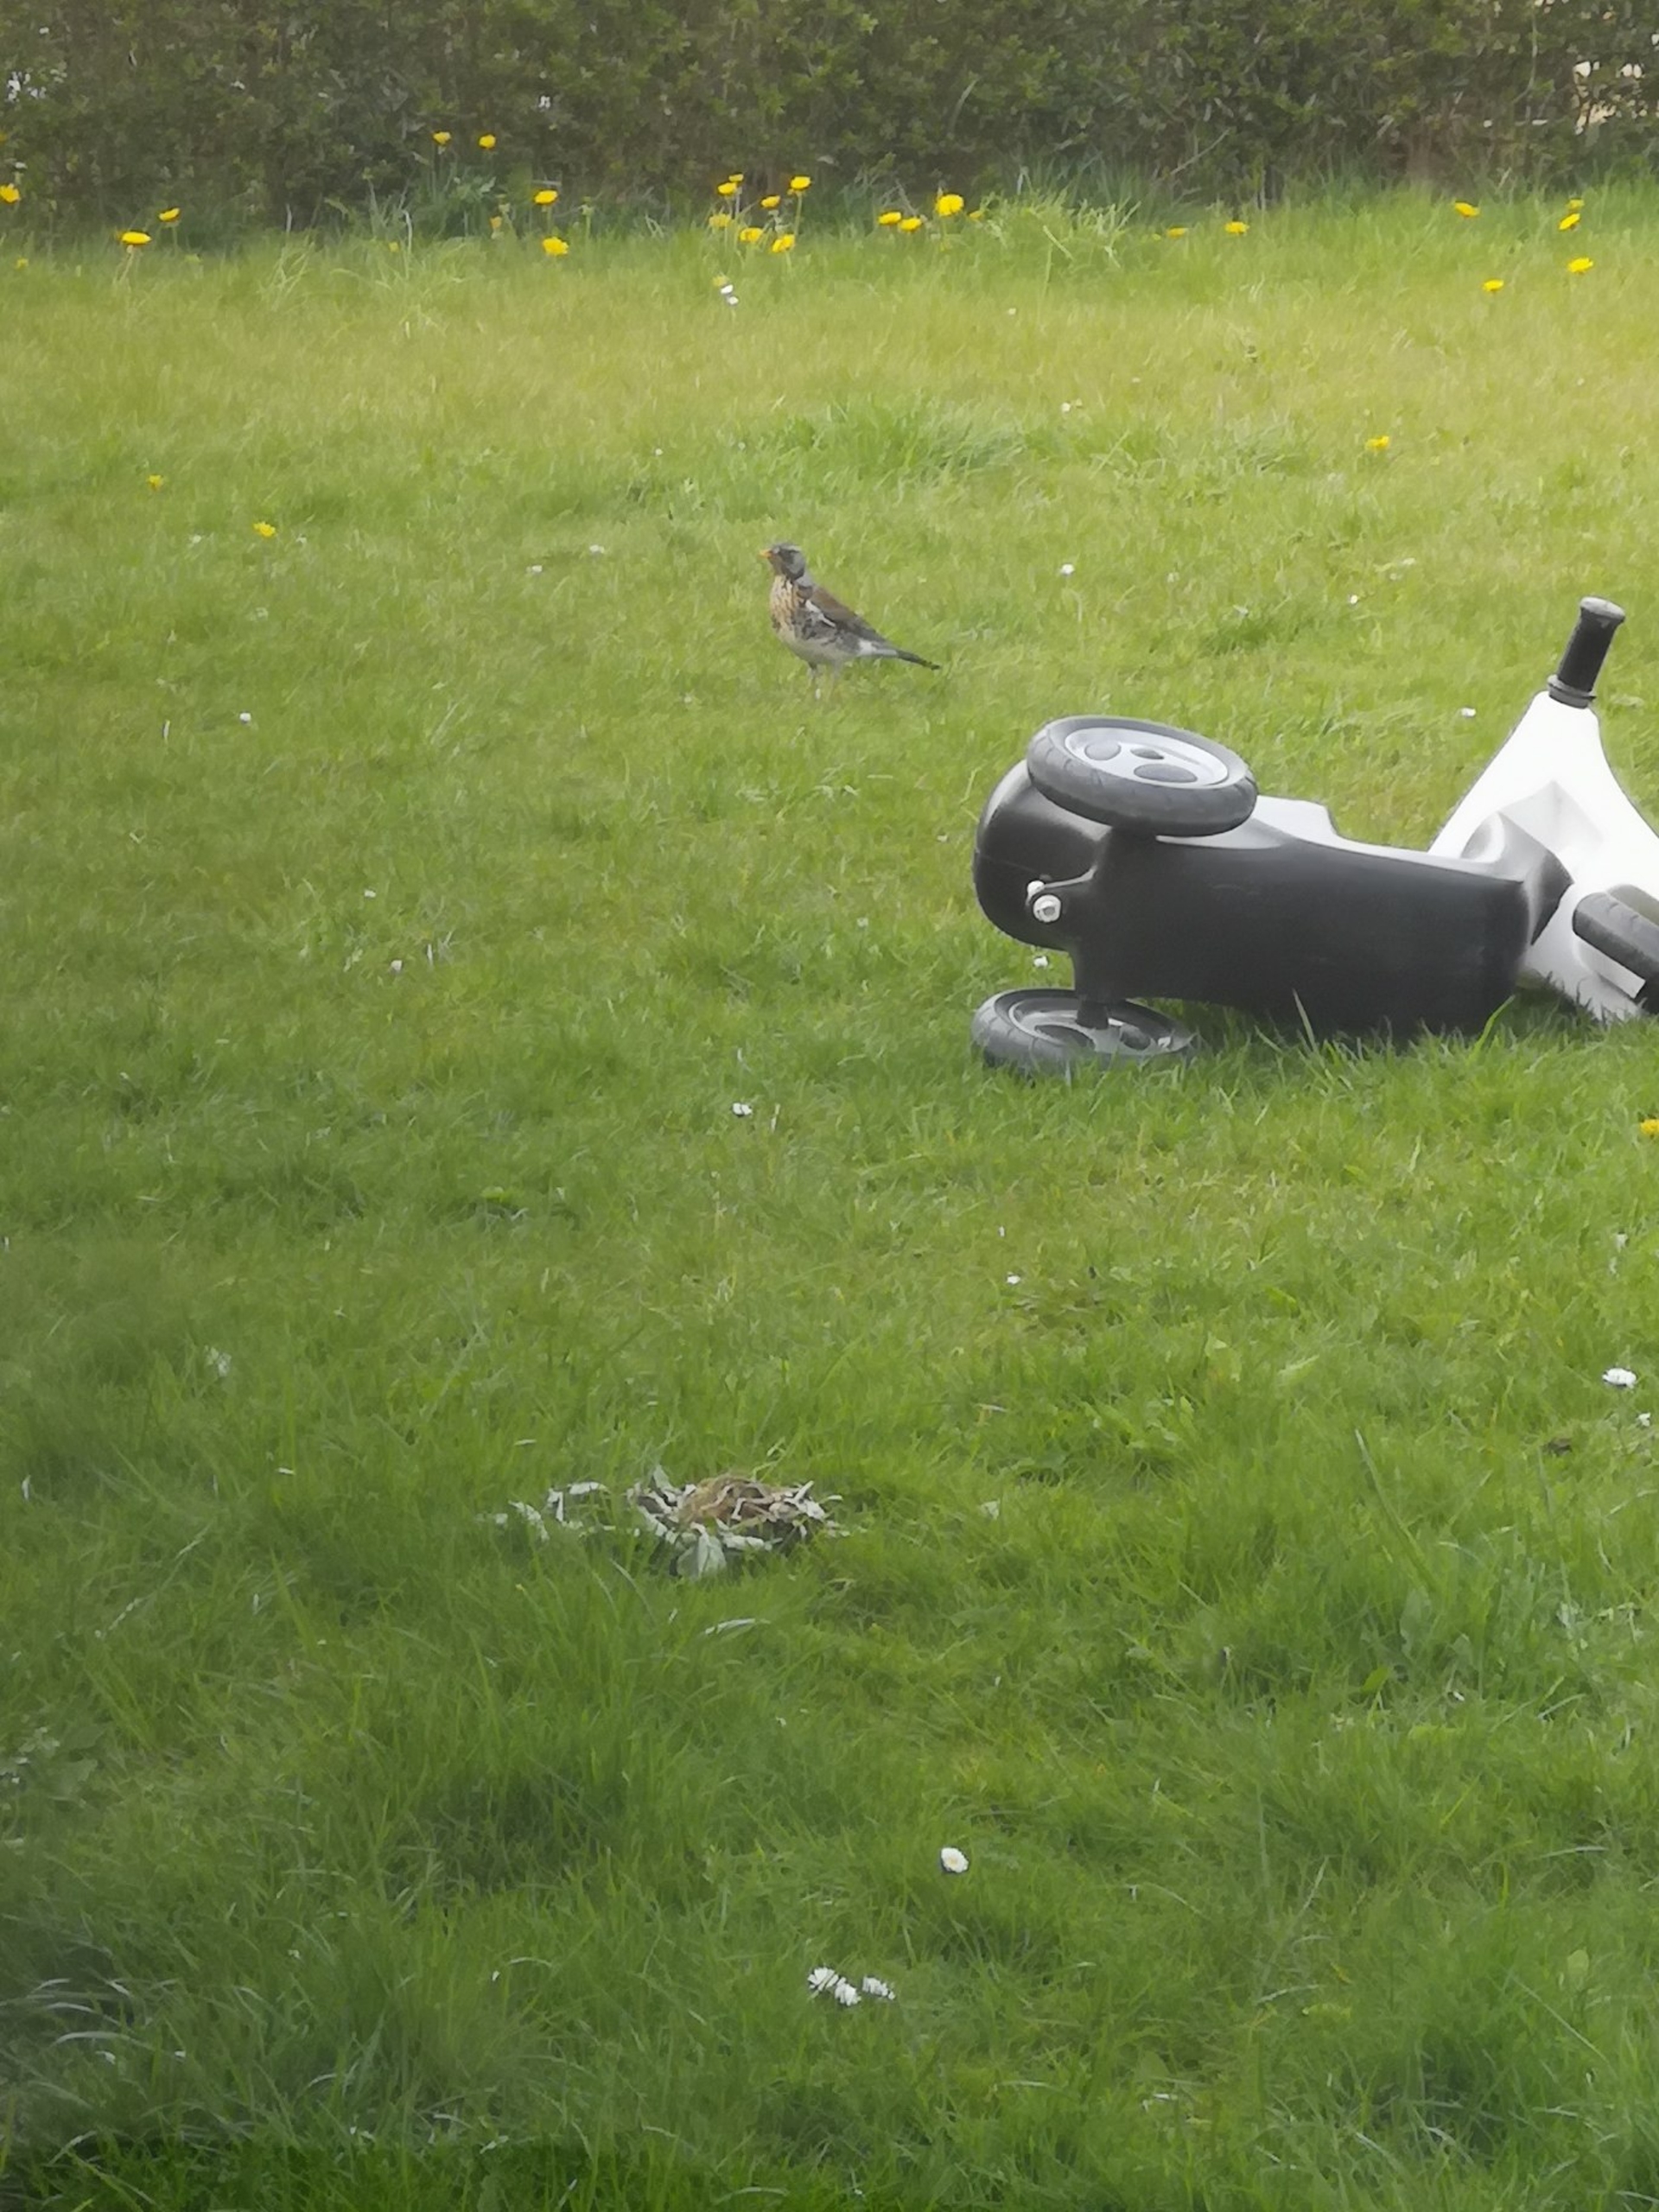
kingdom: Animalia
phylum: Chordata
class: Aves
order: Passeriformes
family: Turdidae
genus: Turdus
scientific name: Turdus pilaris
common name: Sjagger
